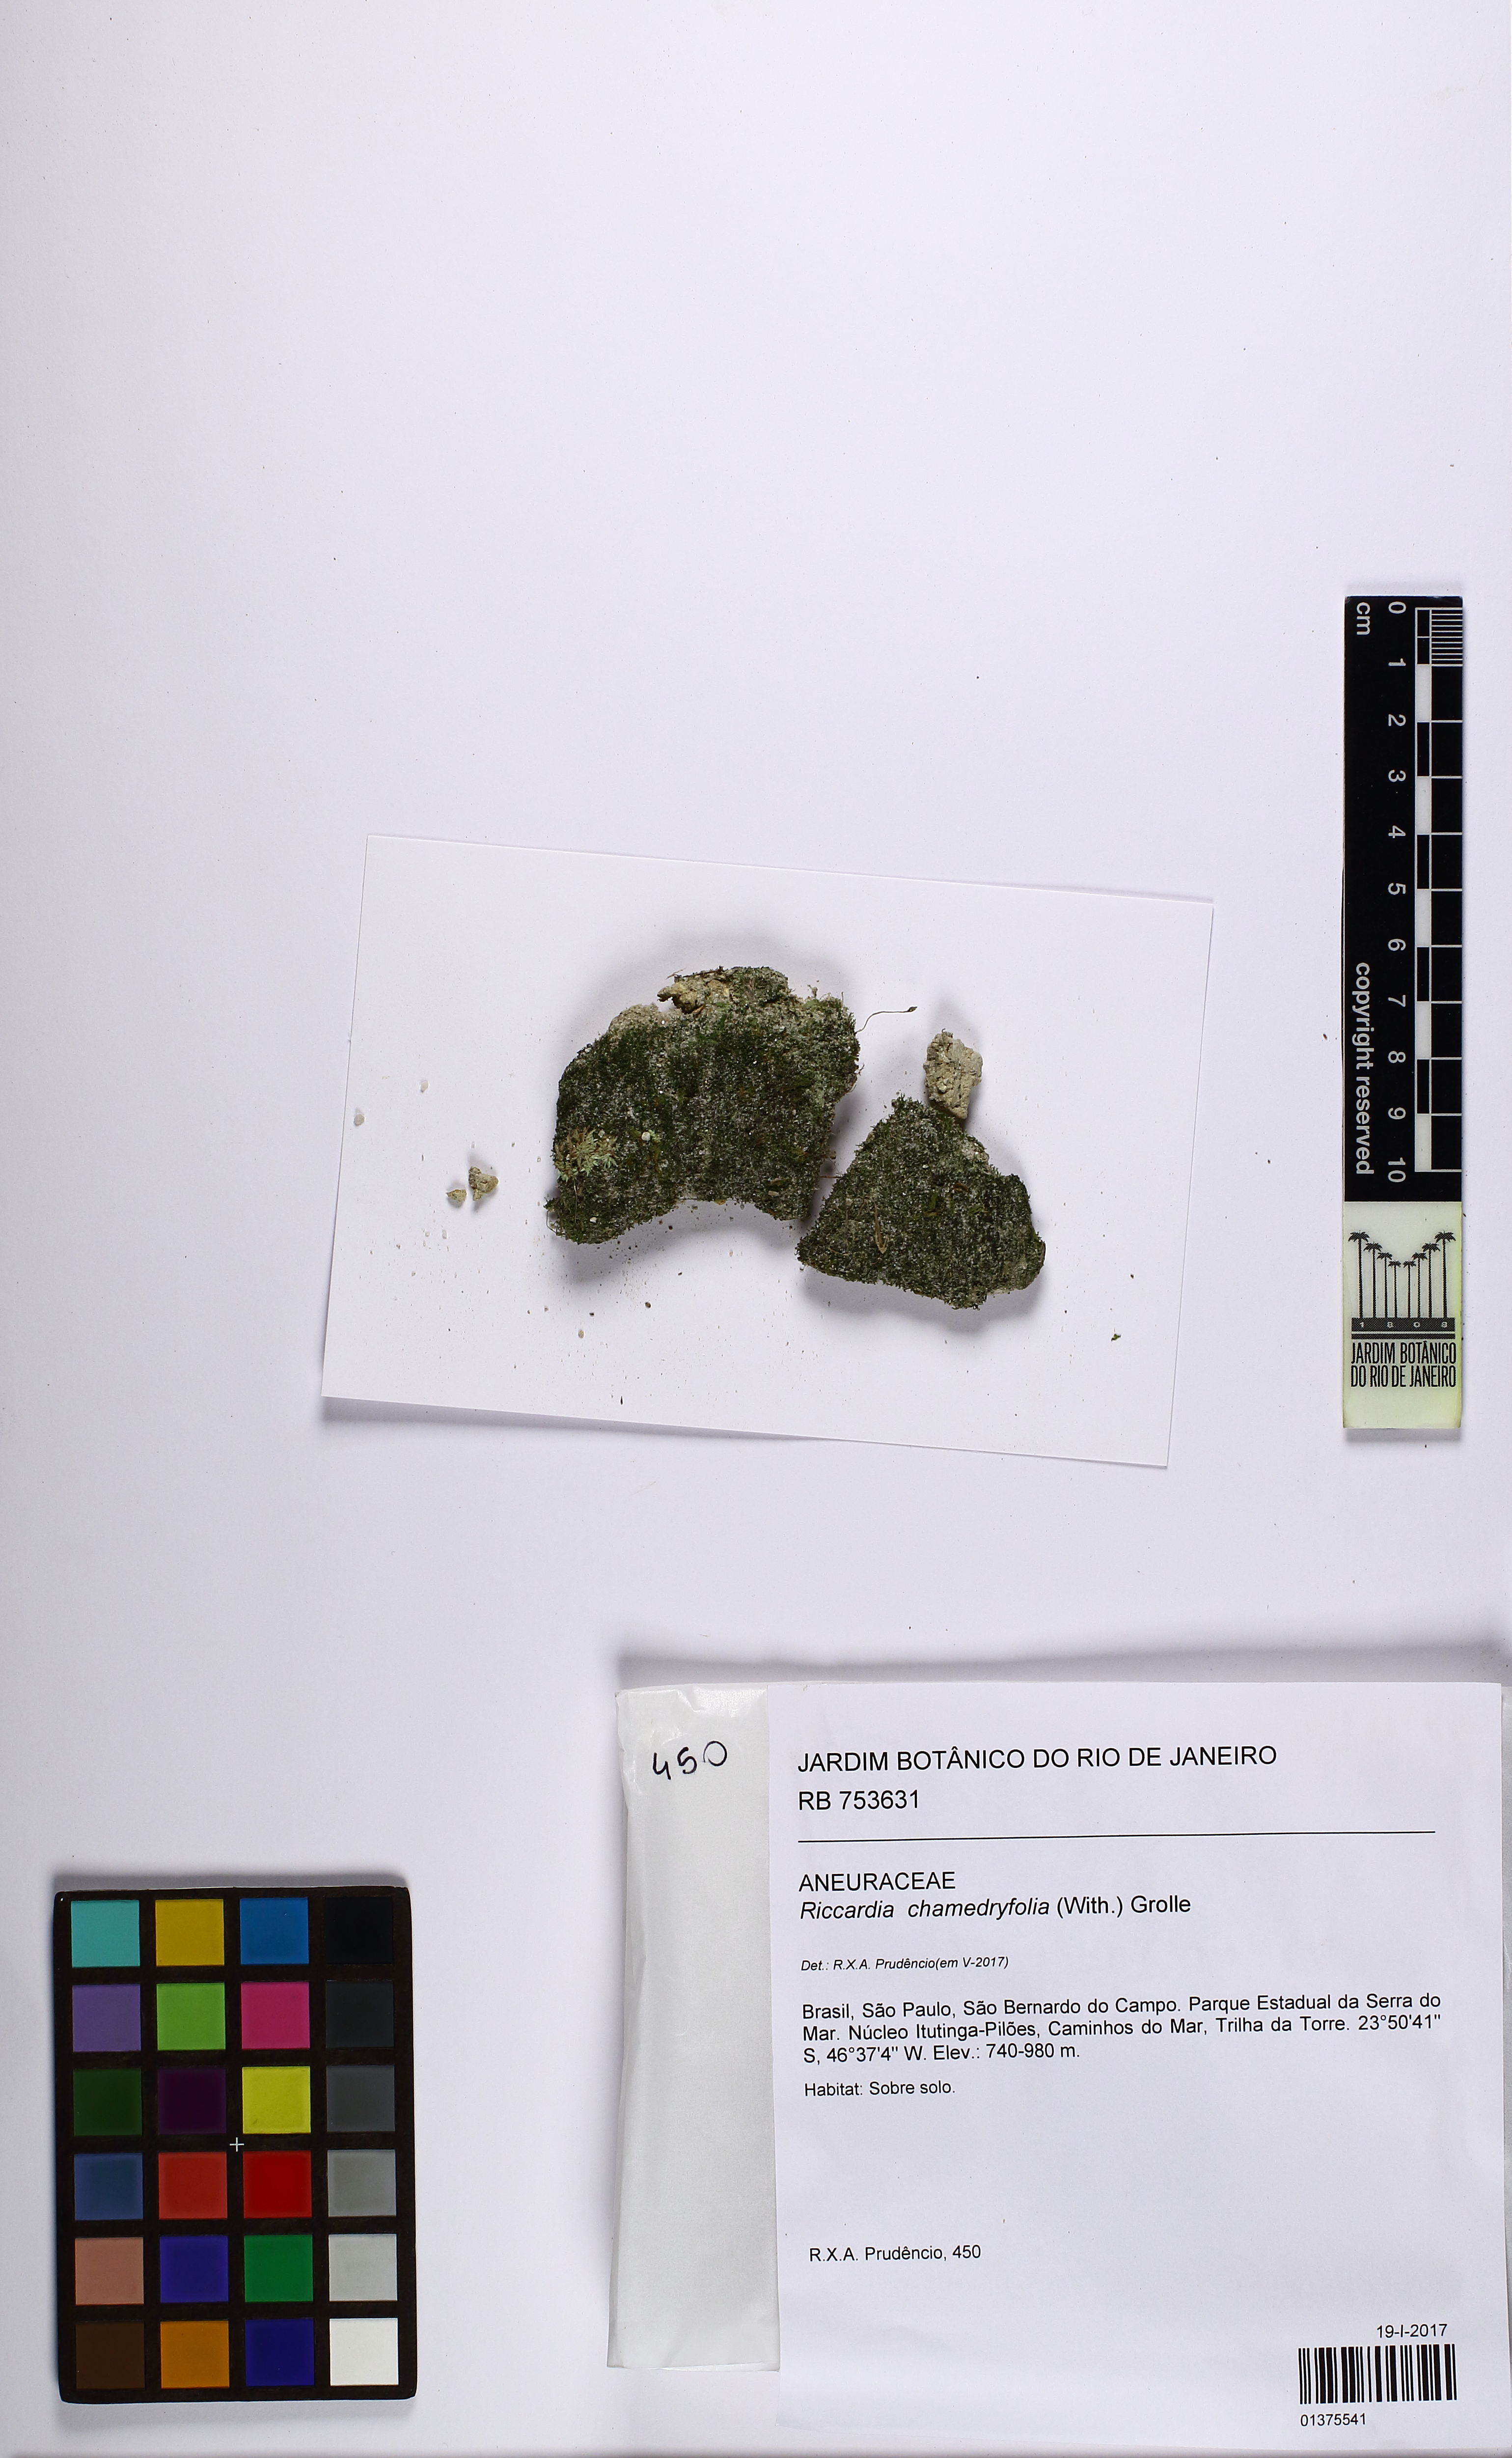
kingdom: Plantae
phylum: Marchantiophyta
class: Jungermanniopsida
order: Metzgeriales
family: Aneuraceae
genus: Riccardia
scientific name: Riccardia chamedryfolia
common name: Jagged germanderwort
